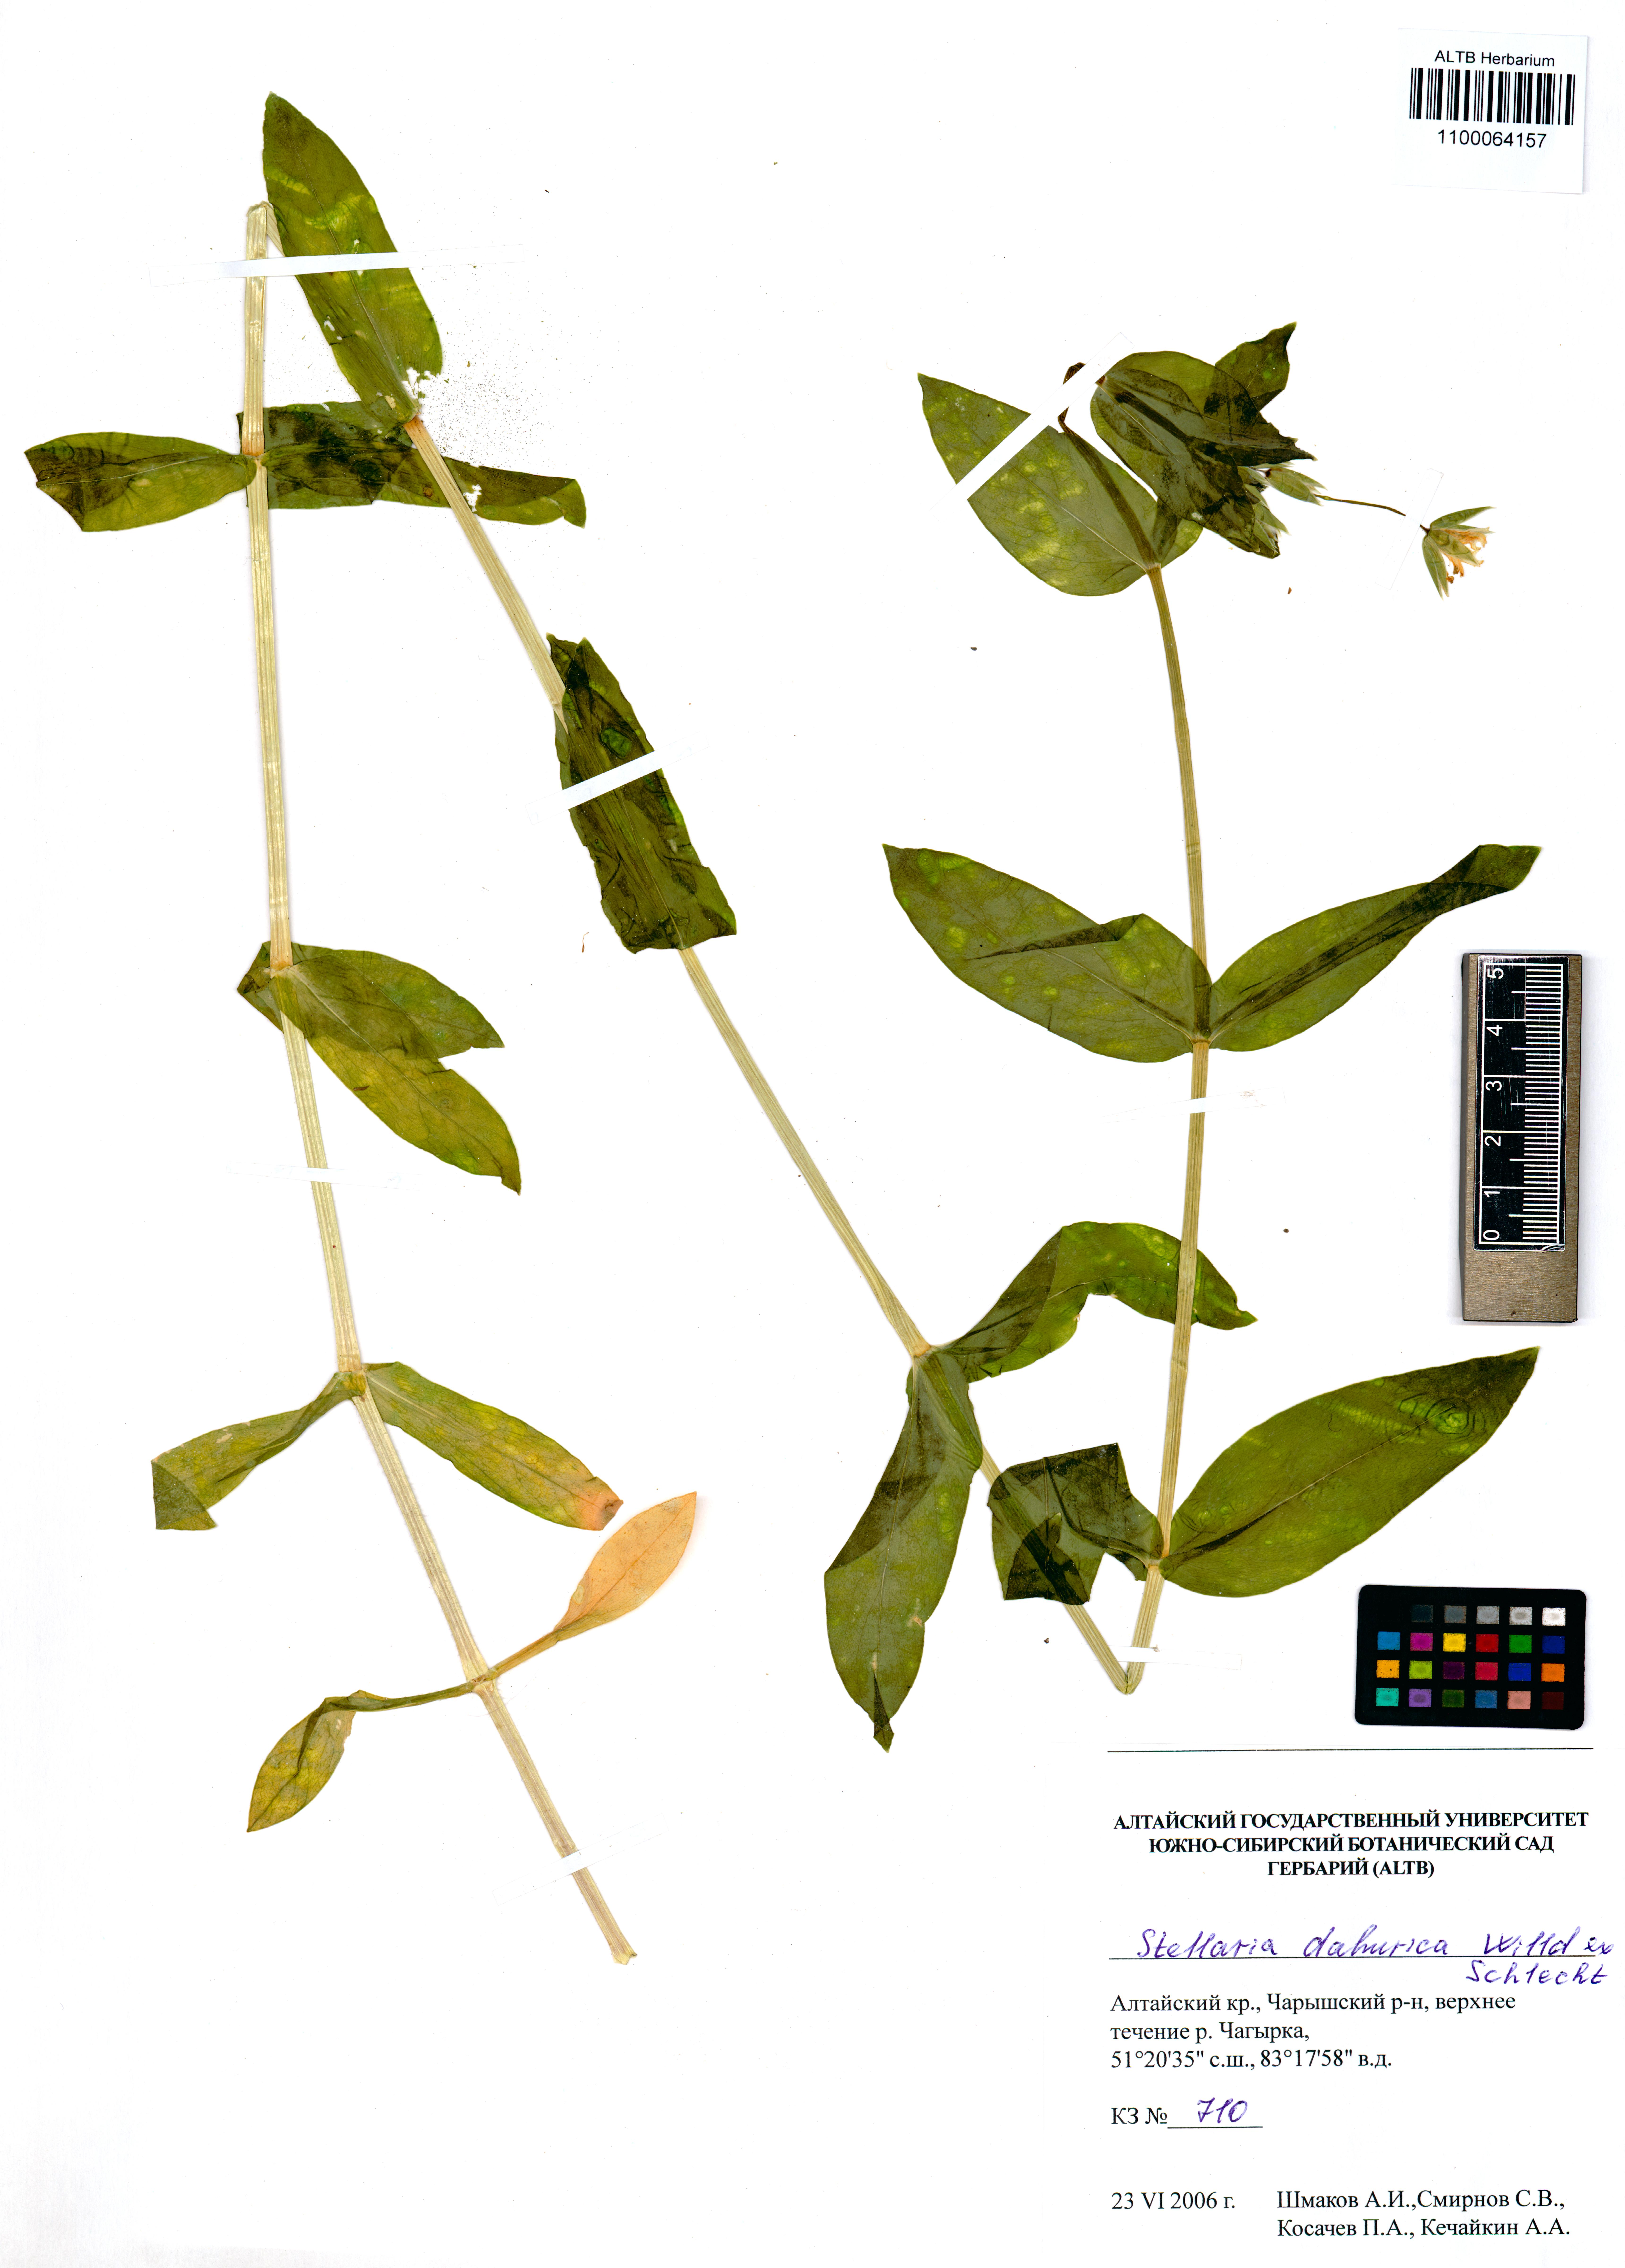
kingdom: Plantae
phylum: Tracheophyta
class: Magnoliopsida
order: Caryophyllales
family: Caryophyllaceae
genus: Stellaria
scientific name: Stellaria davurica
